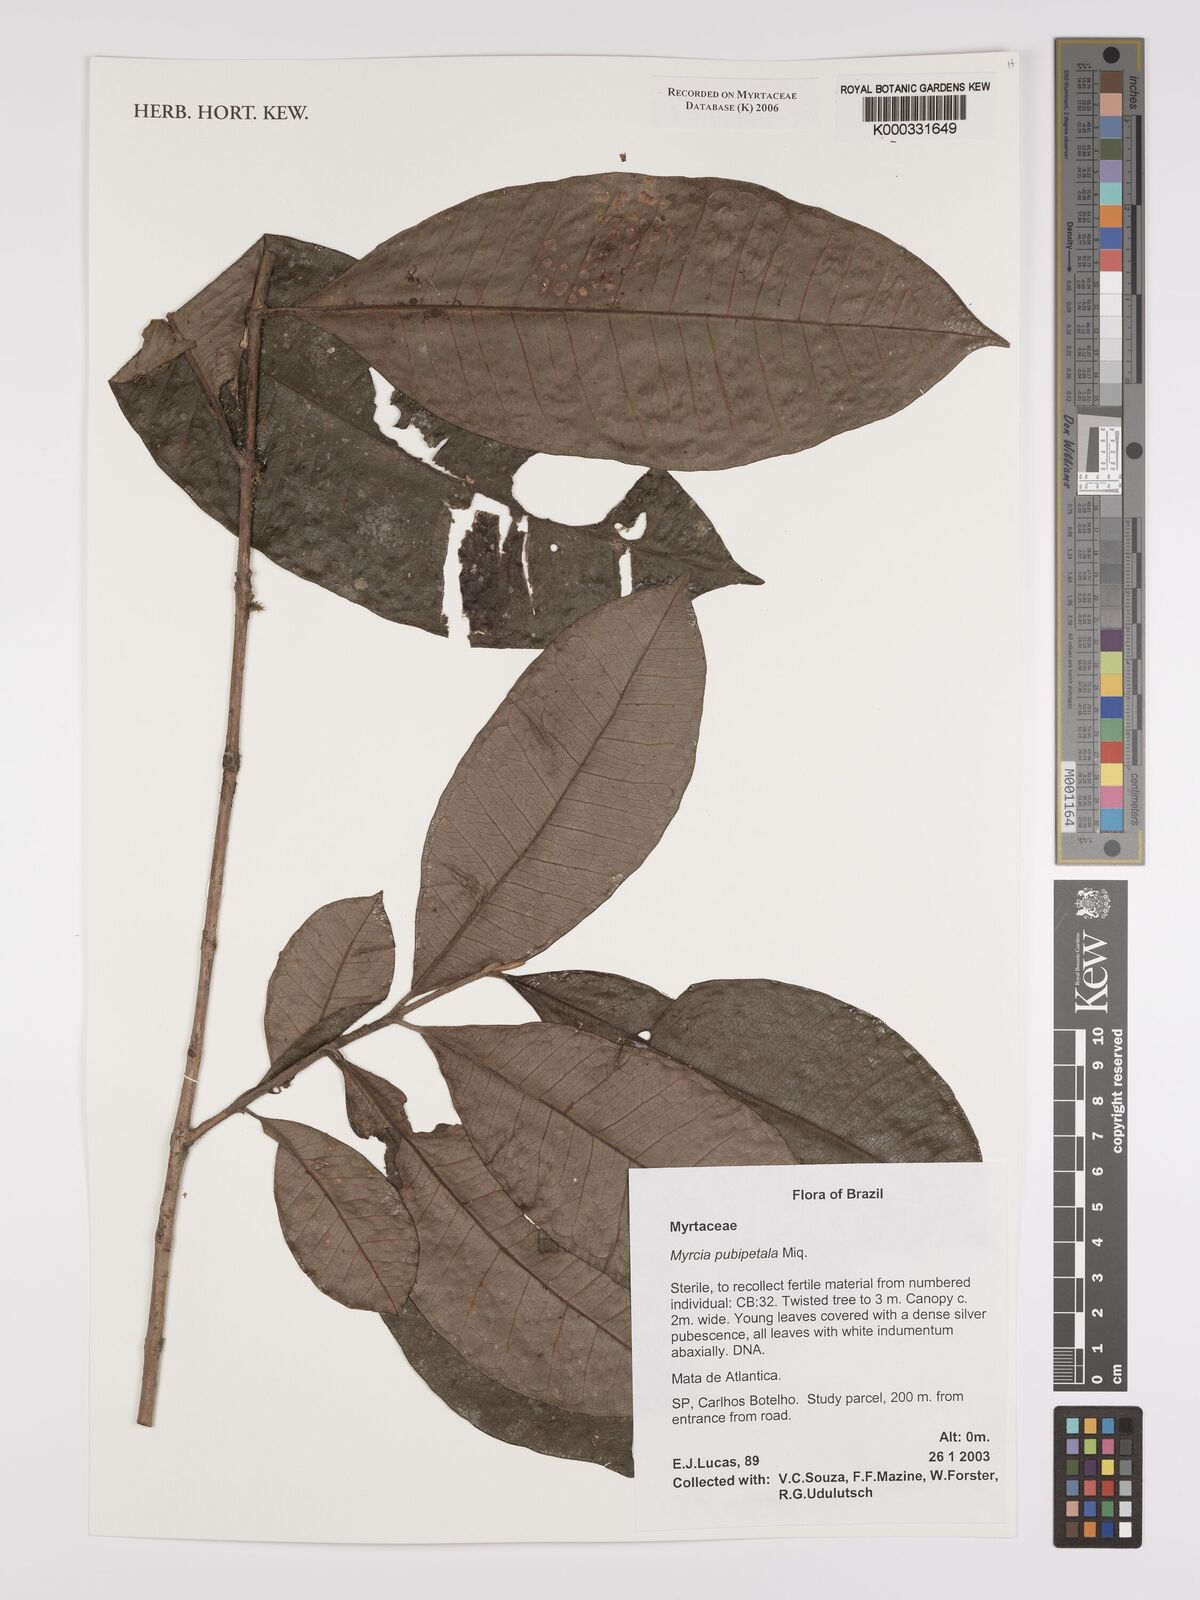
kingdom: Plantae
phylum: Tracheophyta
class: Magnoliopsida
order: Myrtales
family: Myrtaceae
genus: Myrcia
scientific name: Myrcia pubipetala
